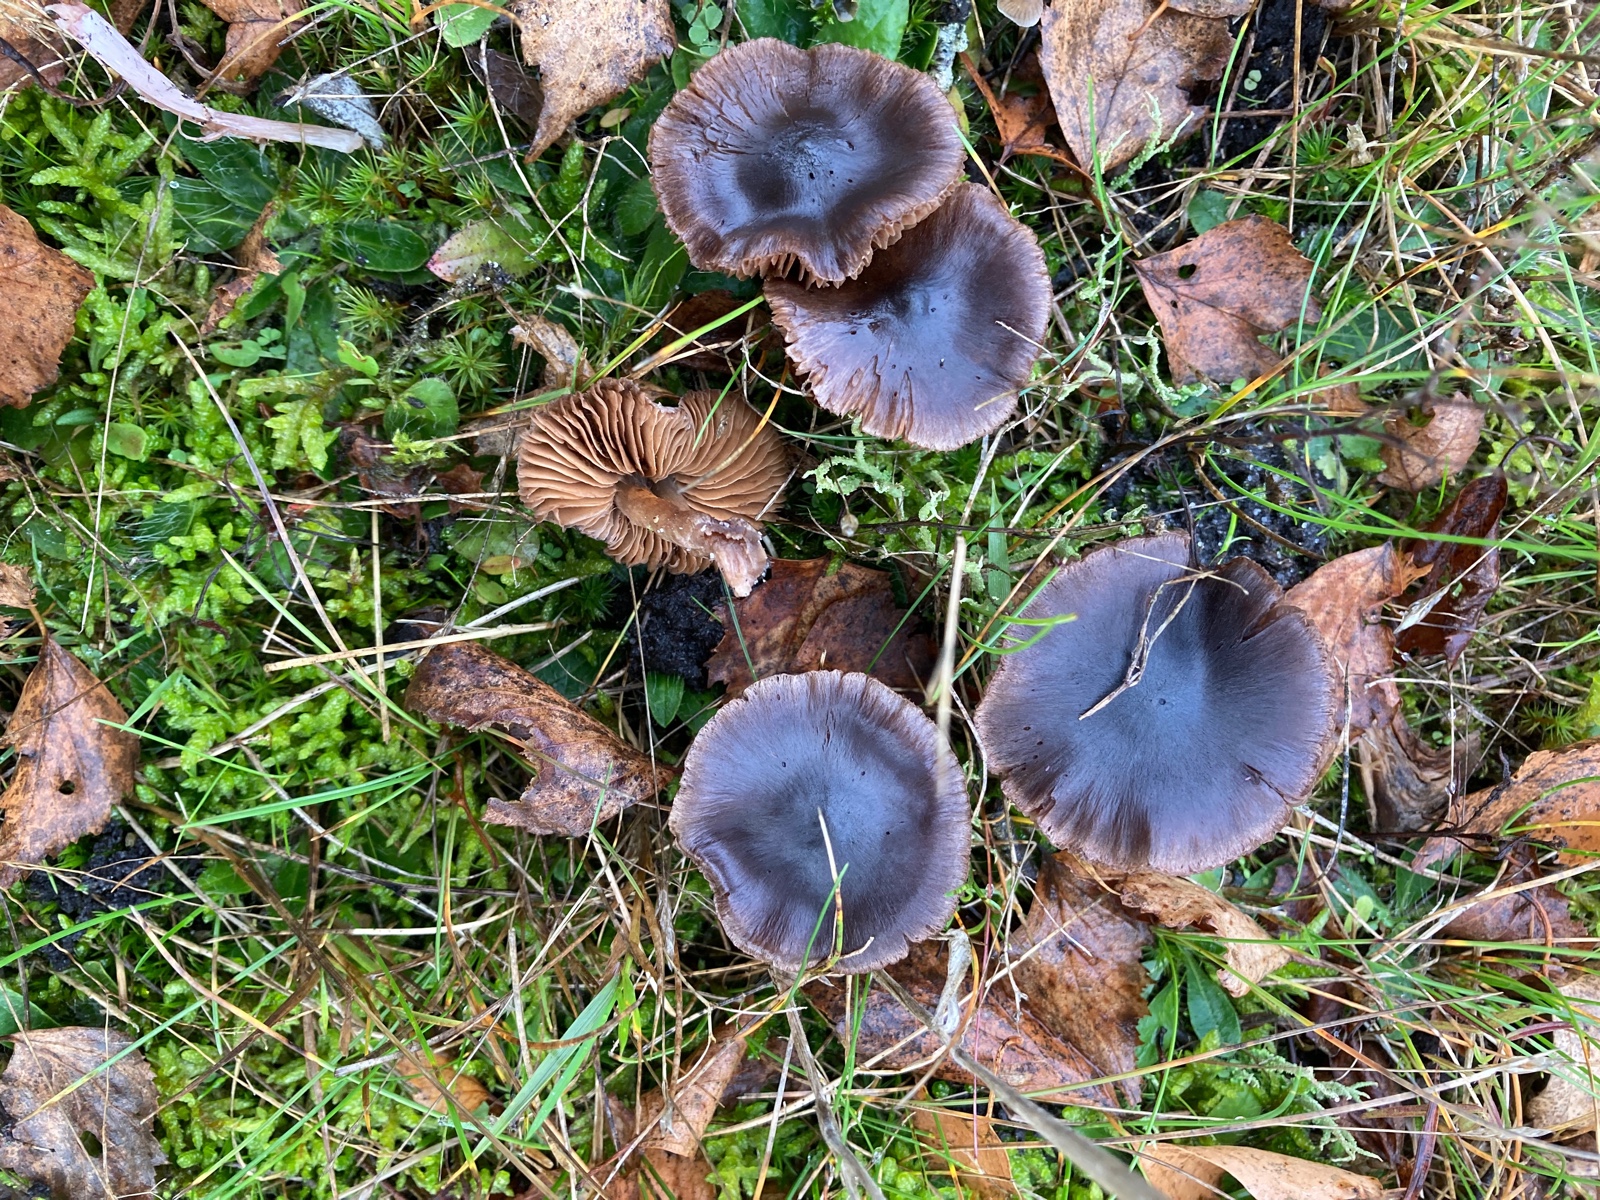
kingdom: Fungi
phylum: Basidiomycota
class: Agaricomycetes
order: Agaricales
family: Cortinariaceae
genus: Cortinarius
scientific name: Cortinarius
